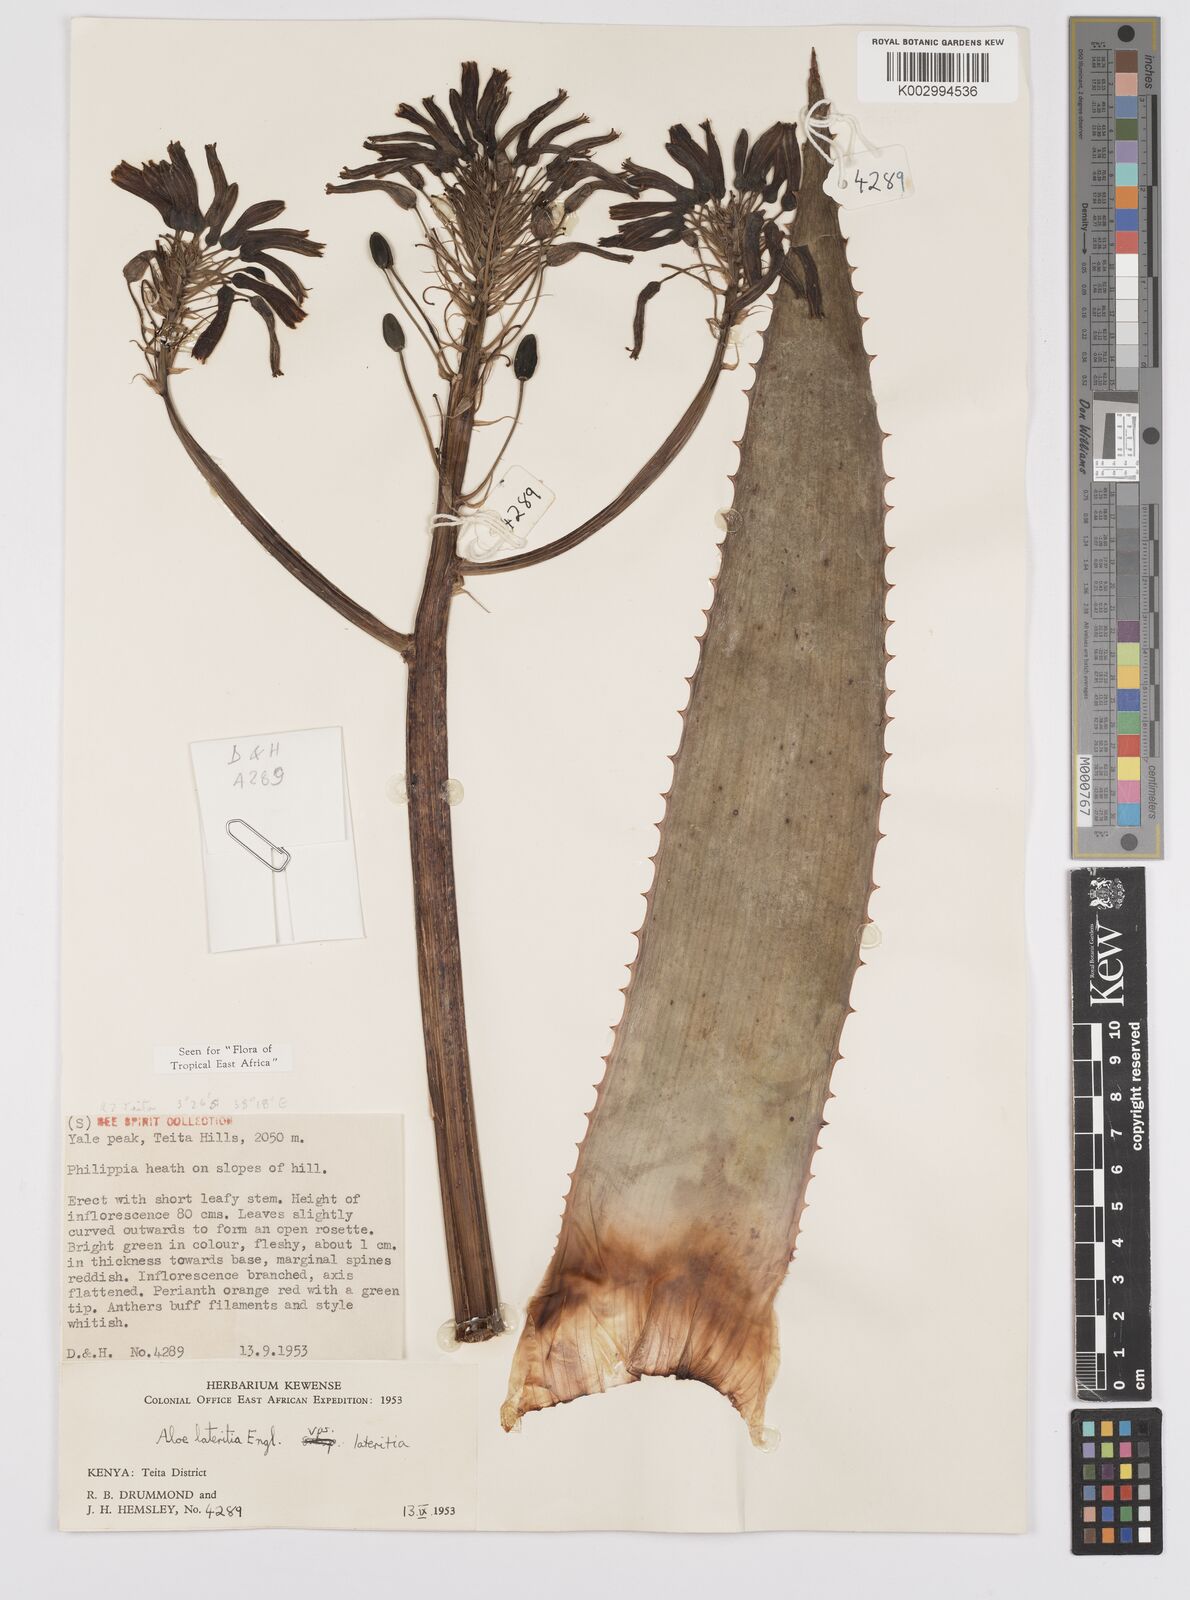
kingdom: Plantae
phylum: Tracheophyta
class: Liliopsida
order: Asparagales
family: Asphodelaceae
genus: Aloe
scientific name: Aloe lateritia
